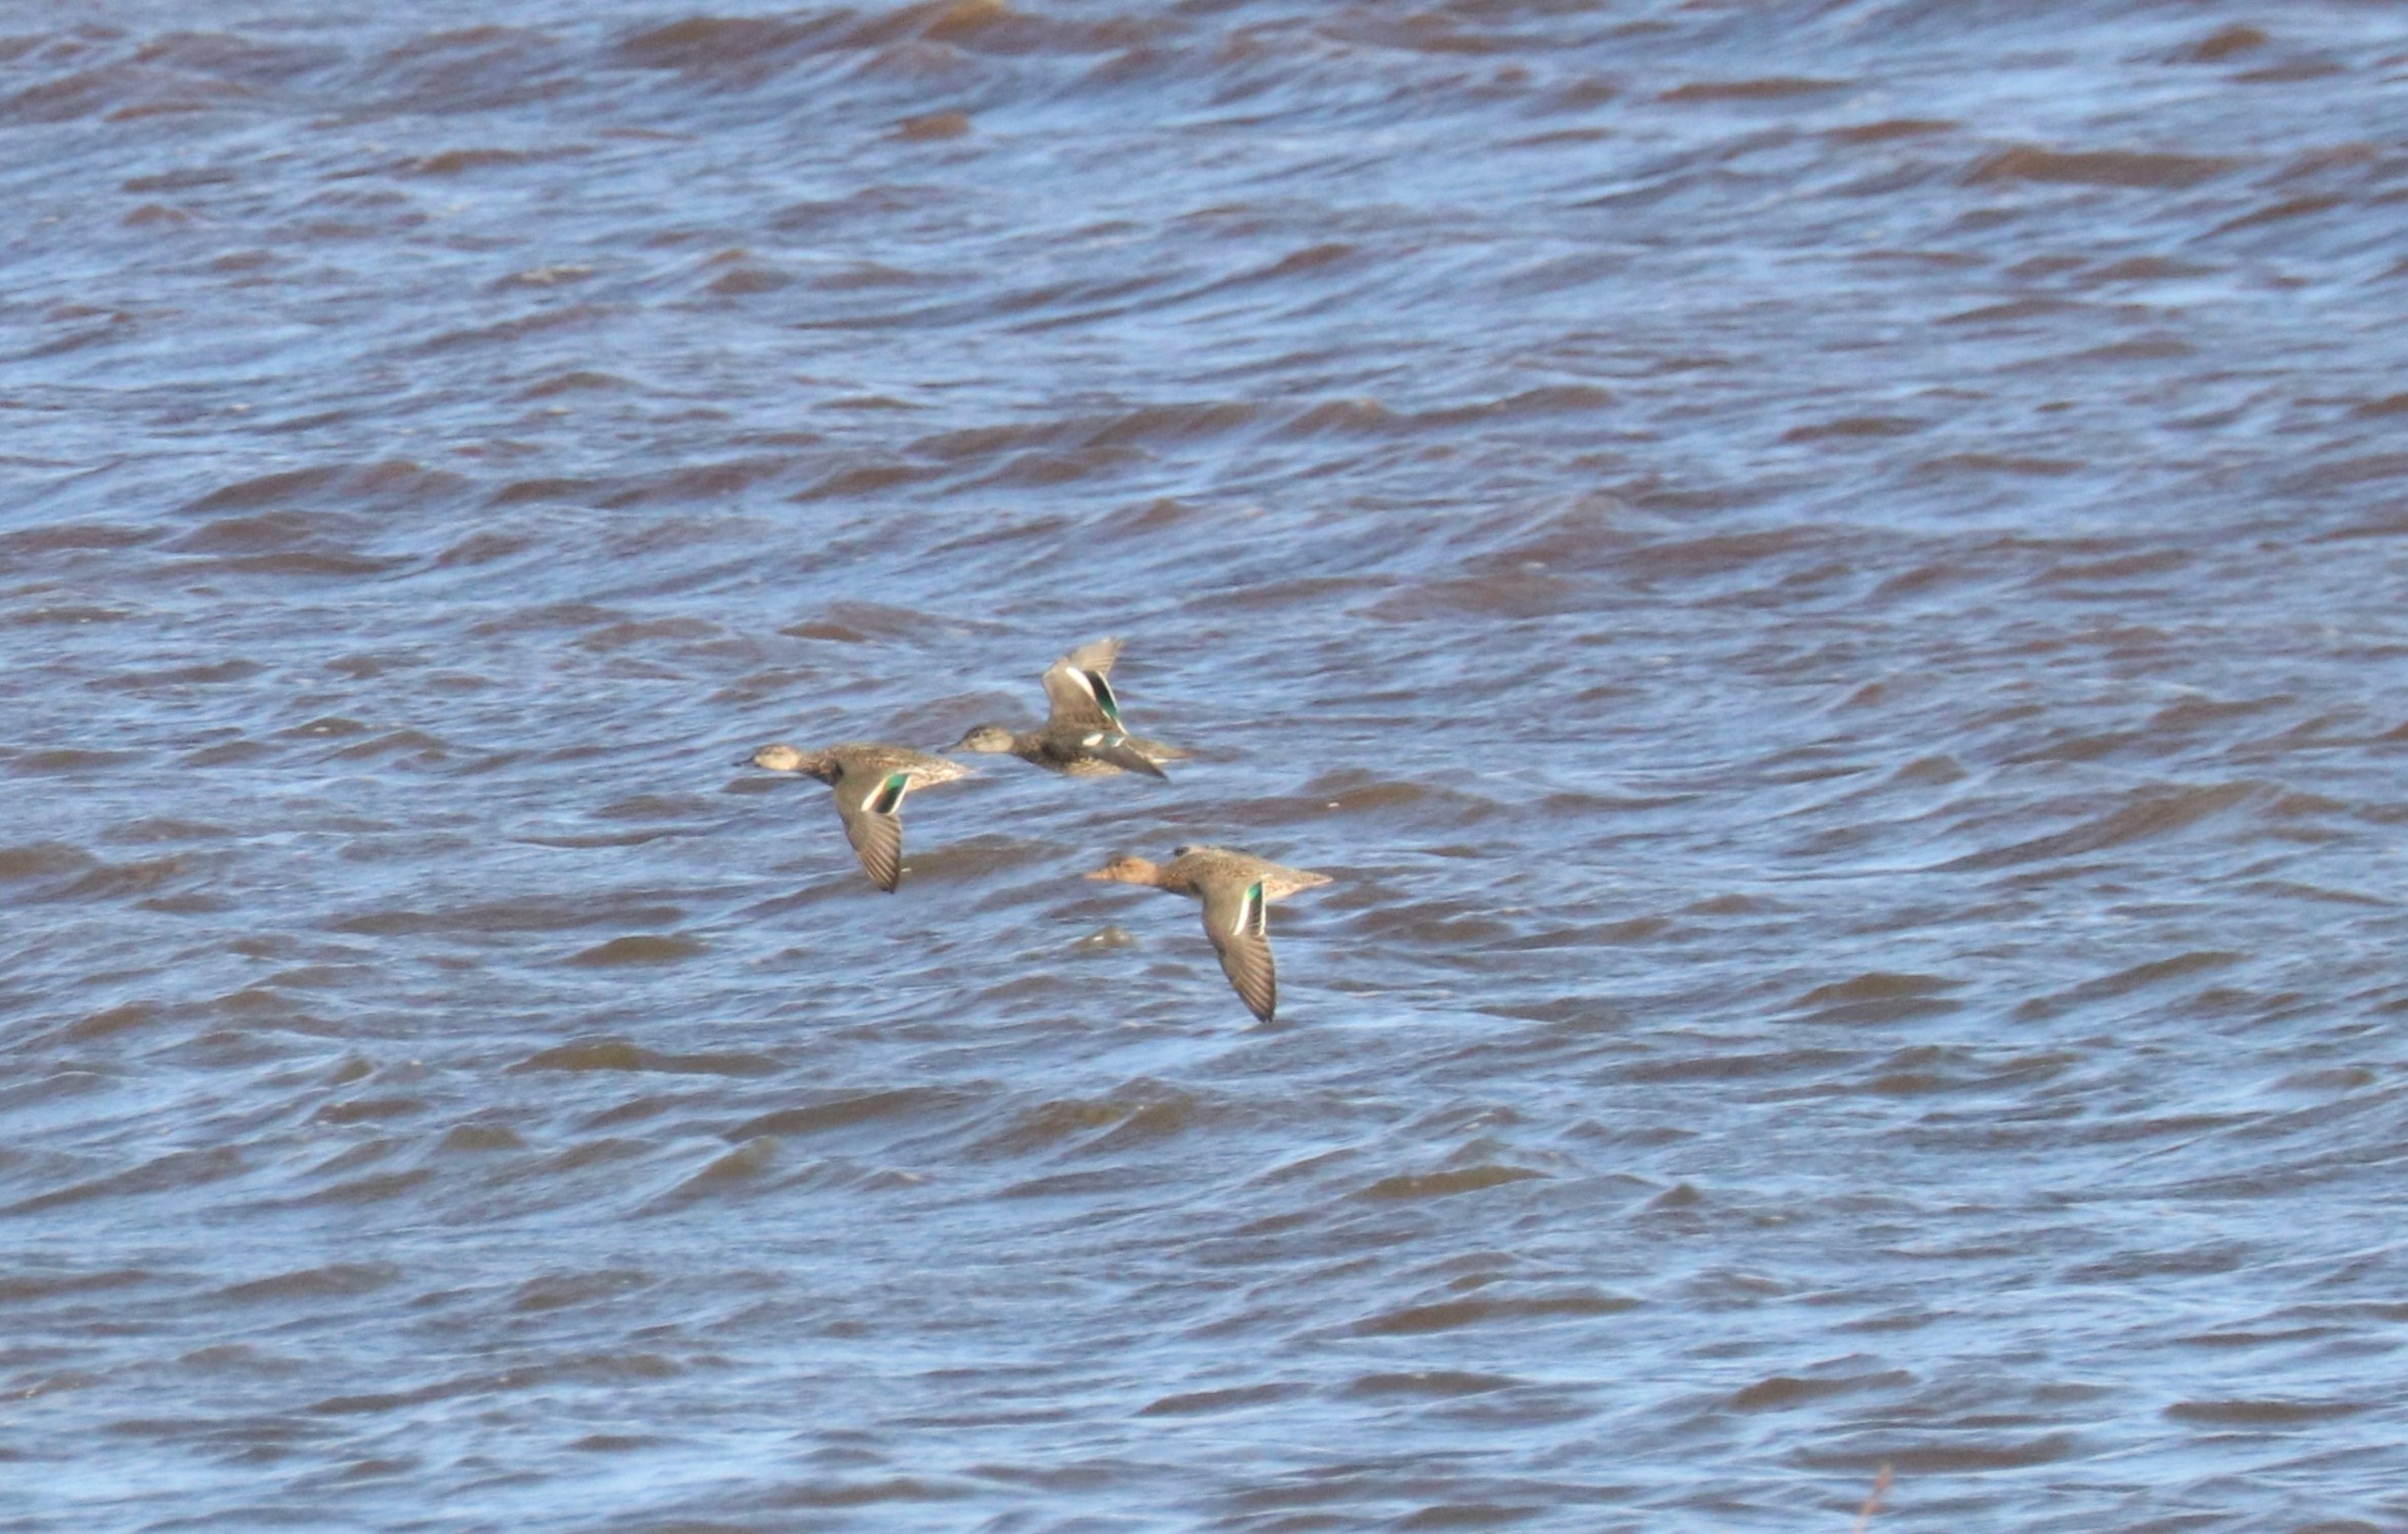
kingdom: Animalia
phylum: Chordata
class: Aves
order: Anseriformes
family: Anatidae
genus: Anas
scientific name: Anas crecca
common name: Krikand
